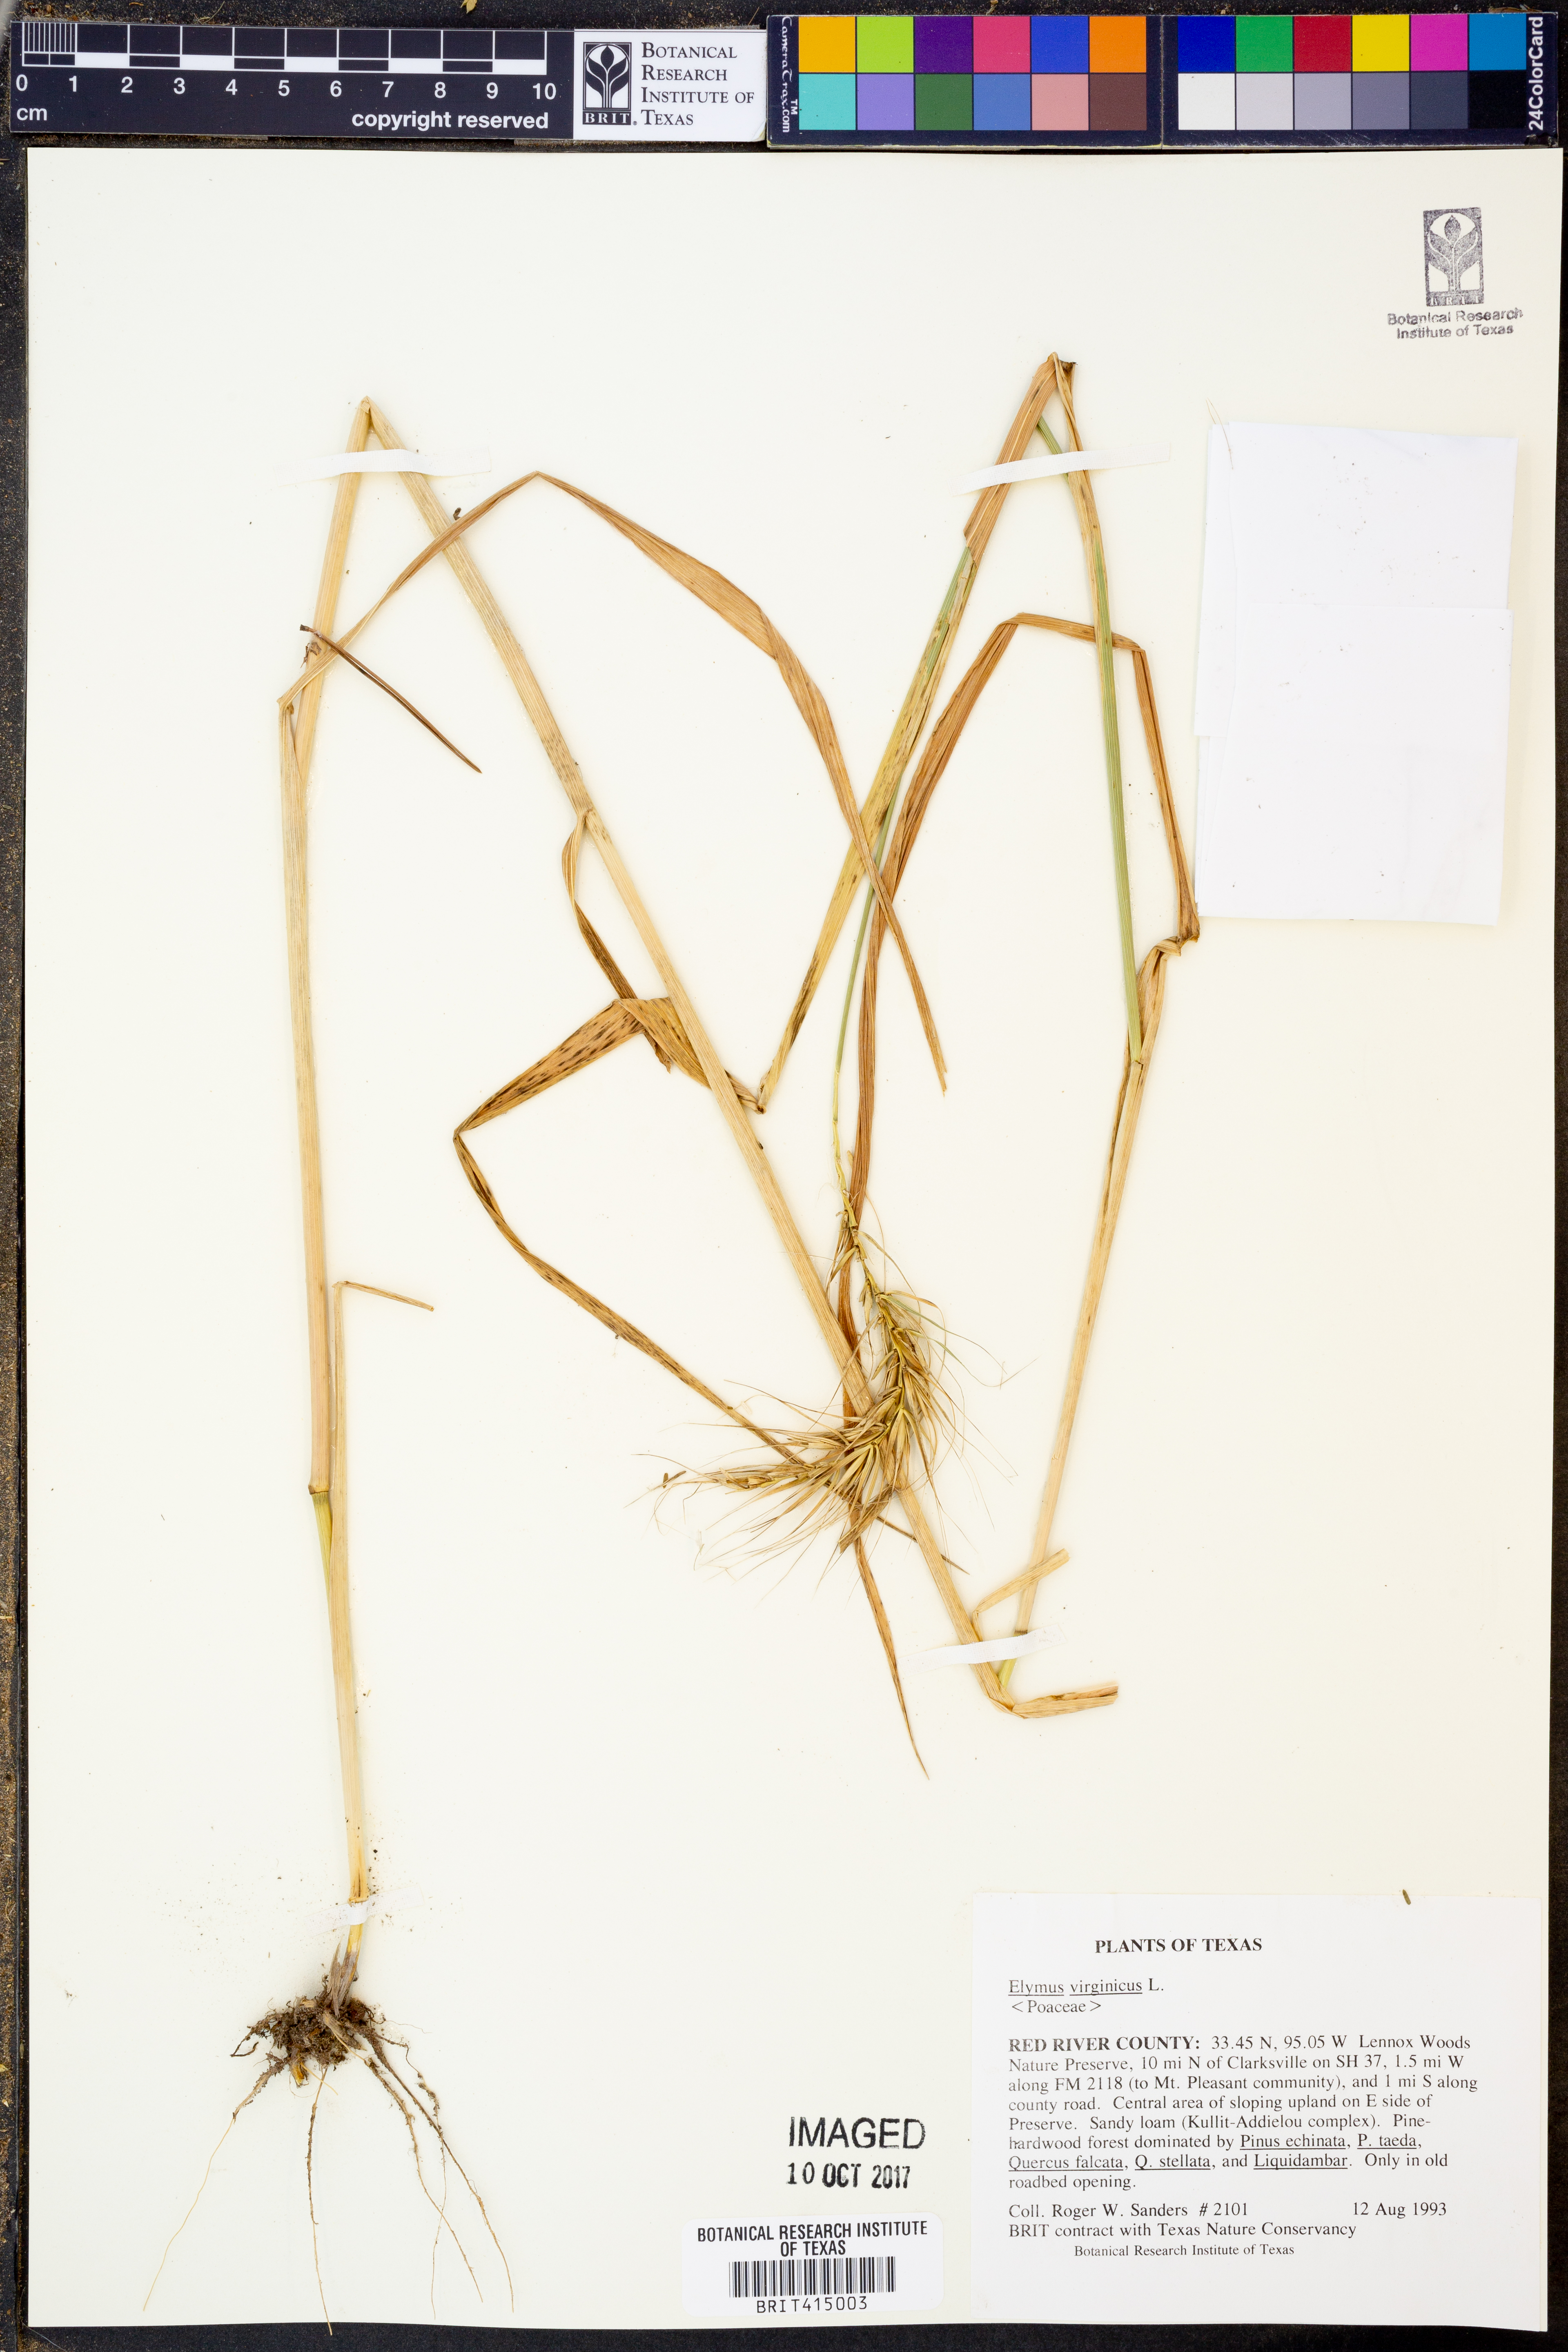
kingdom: Plantae
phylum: Tracheophyta
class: Liliopsida
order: Poales
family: Poaceae
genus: Elymus
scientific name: Elymus virginicus
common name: Common eastern wildrye
